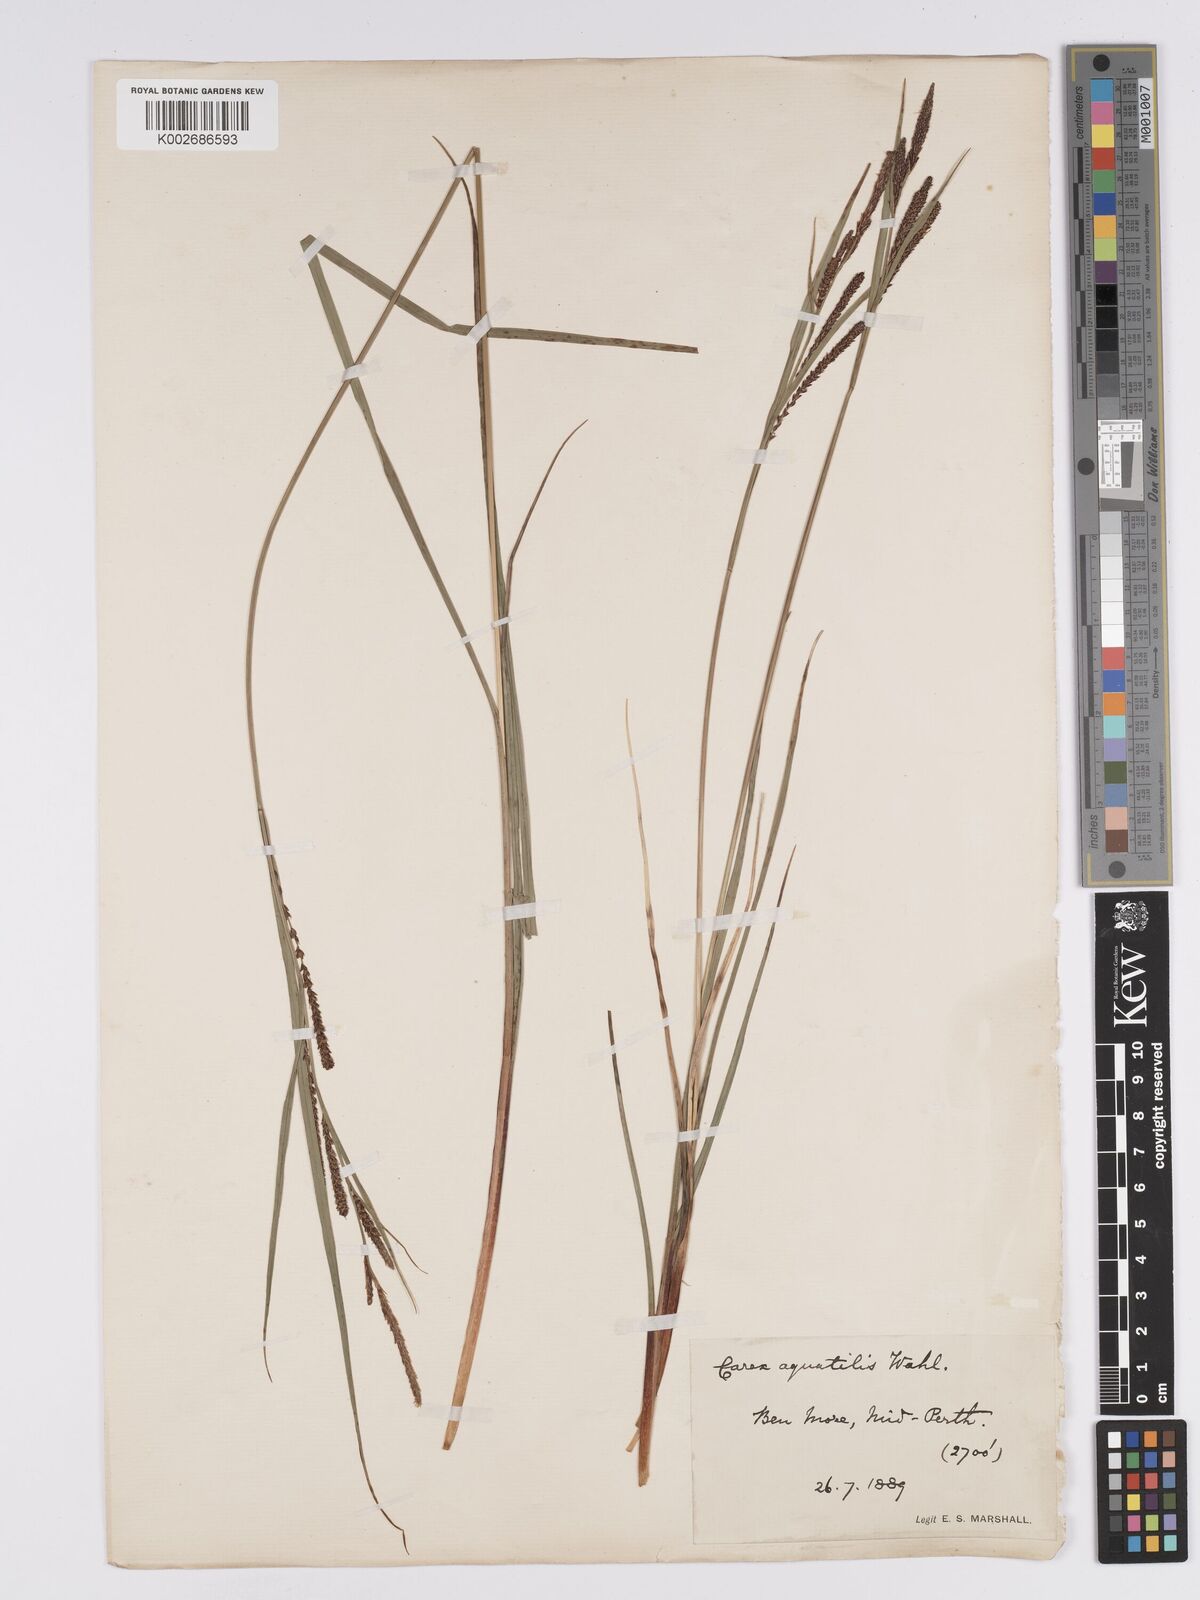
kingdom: Plantae
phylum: Tracheophyta
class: Liliopsida
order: Poales
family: Cyperaceae
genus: Carex
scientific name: Carex aquatilis
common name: Water sedge
